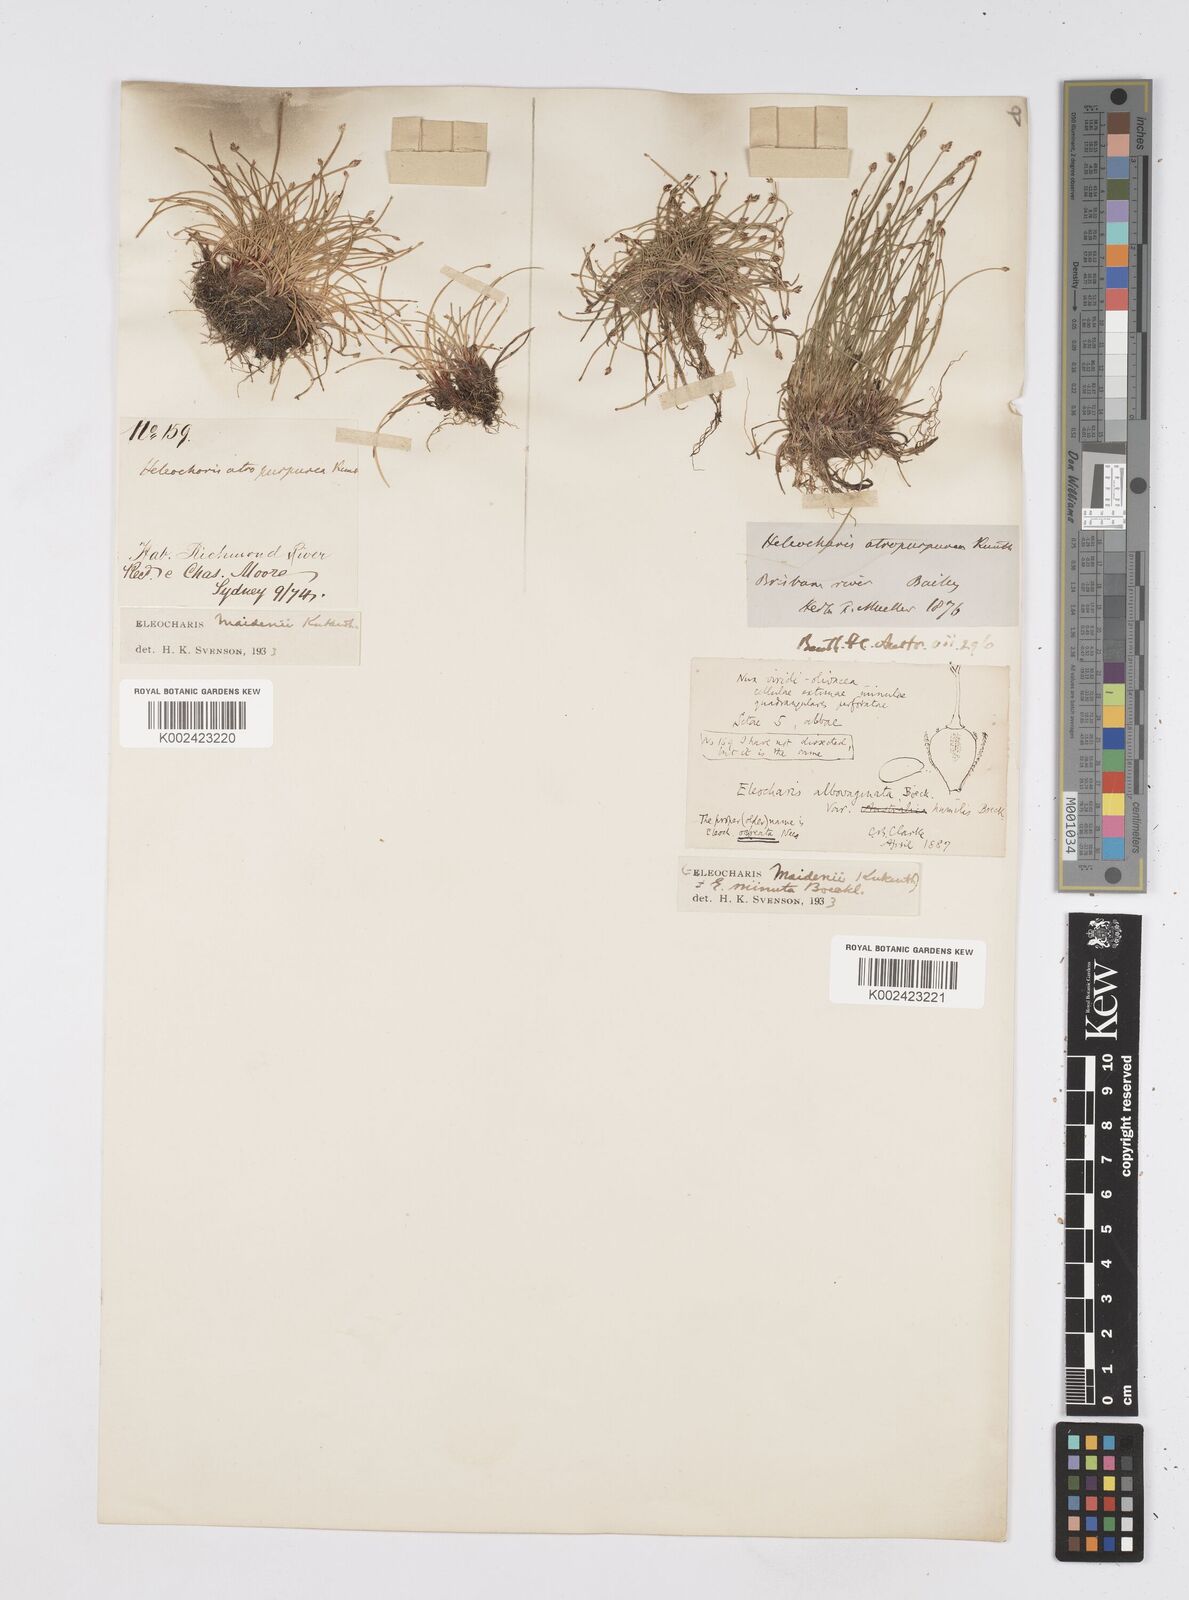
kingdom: Plantae
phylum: Tracheophyta
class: Liliopsida
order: Poales
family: Cyperaceae
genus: Eleocharis
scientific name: Eleocharis minuta
